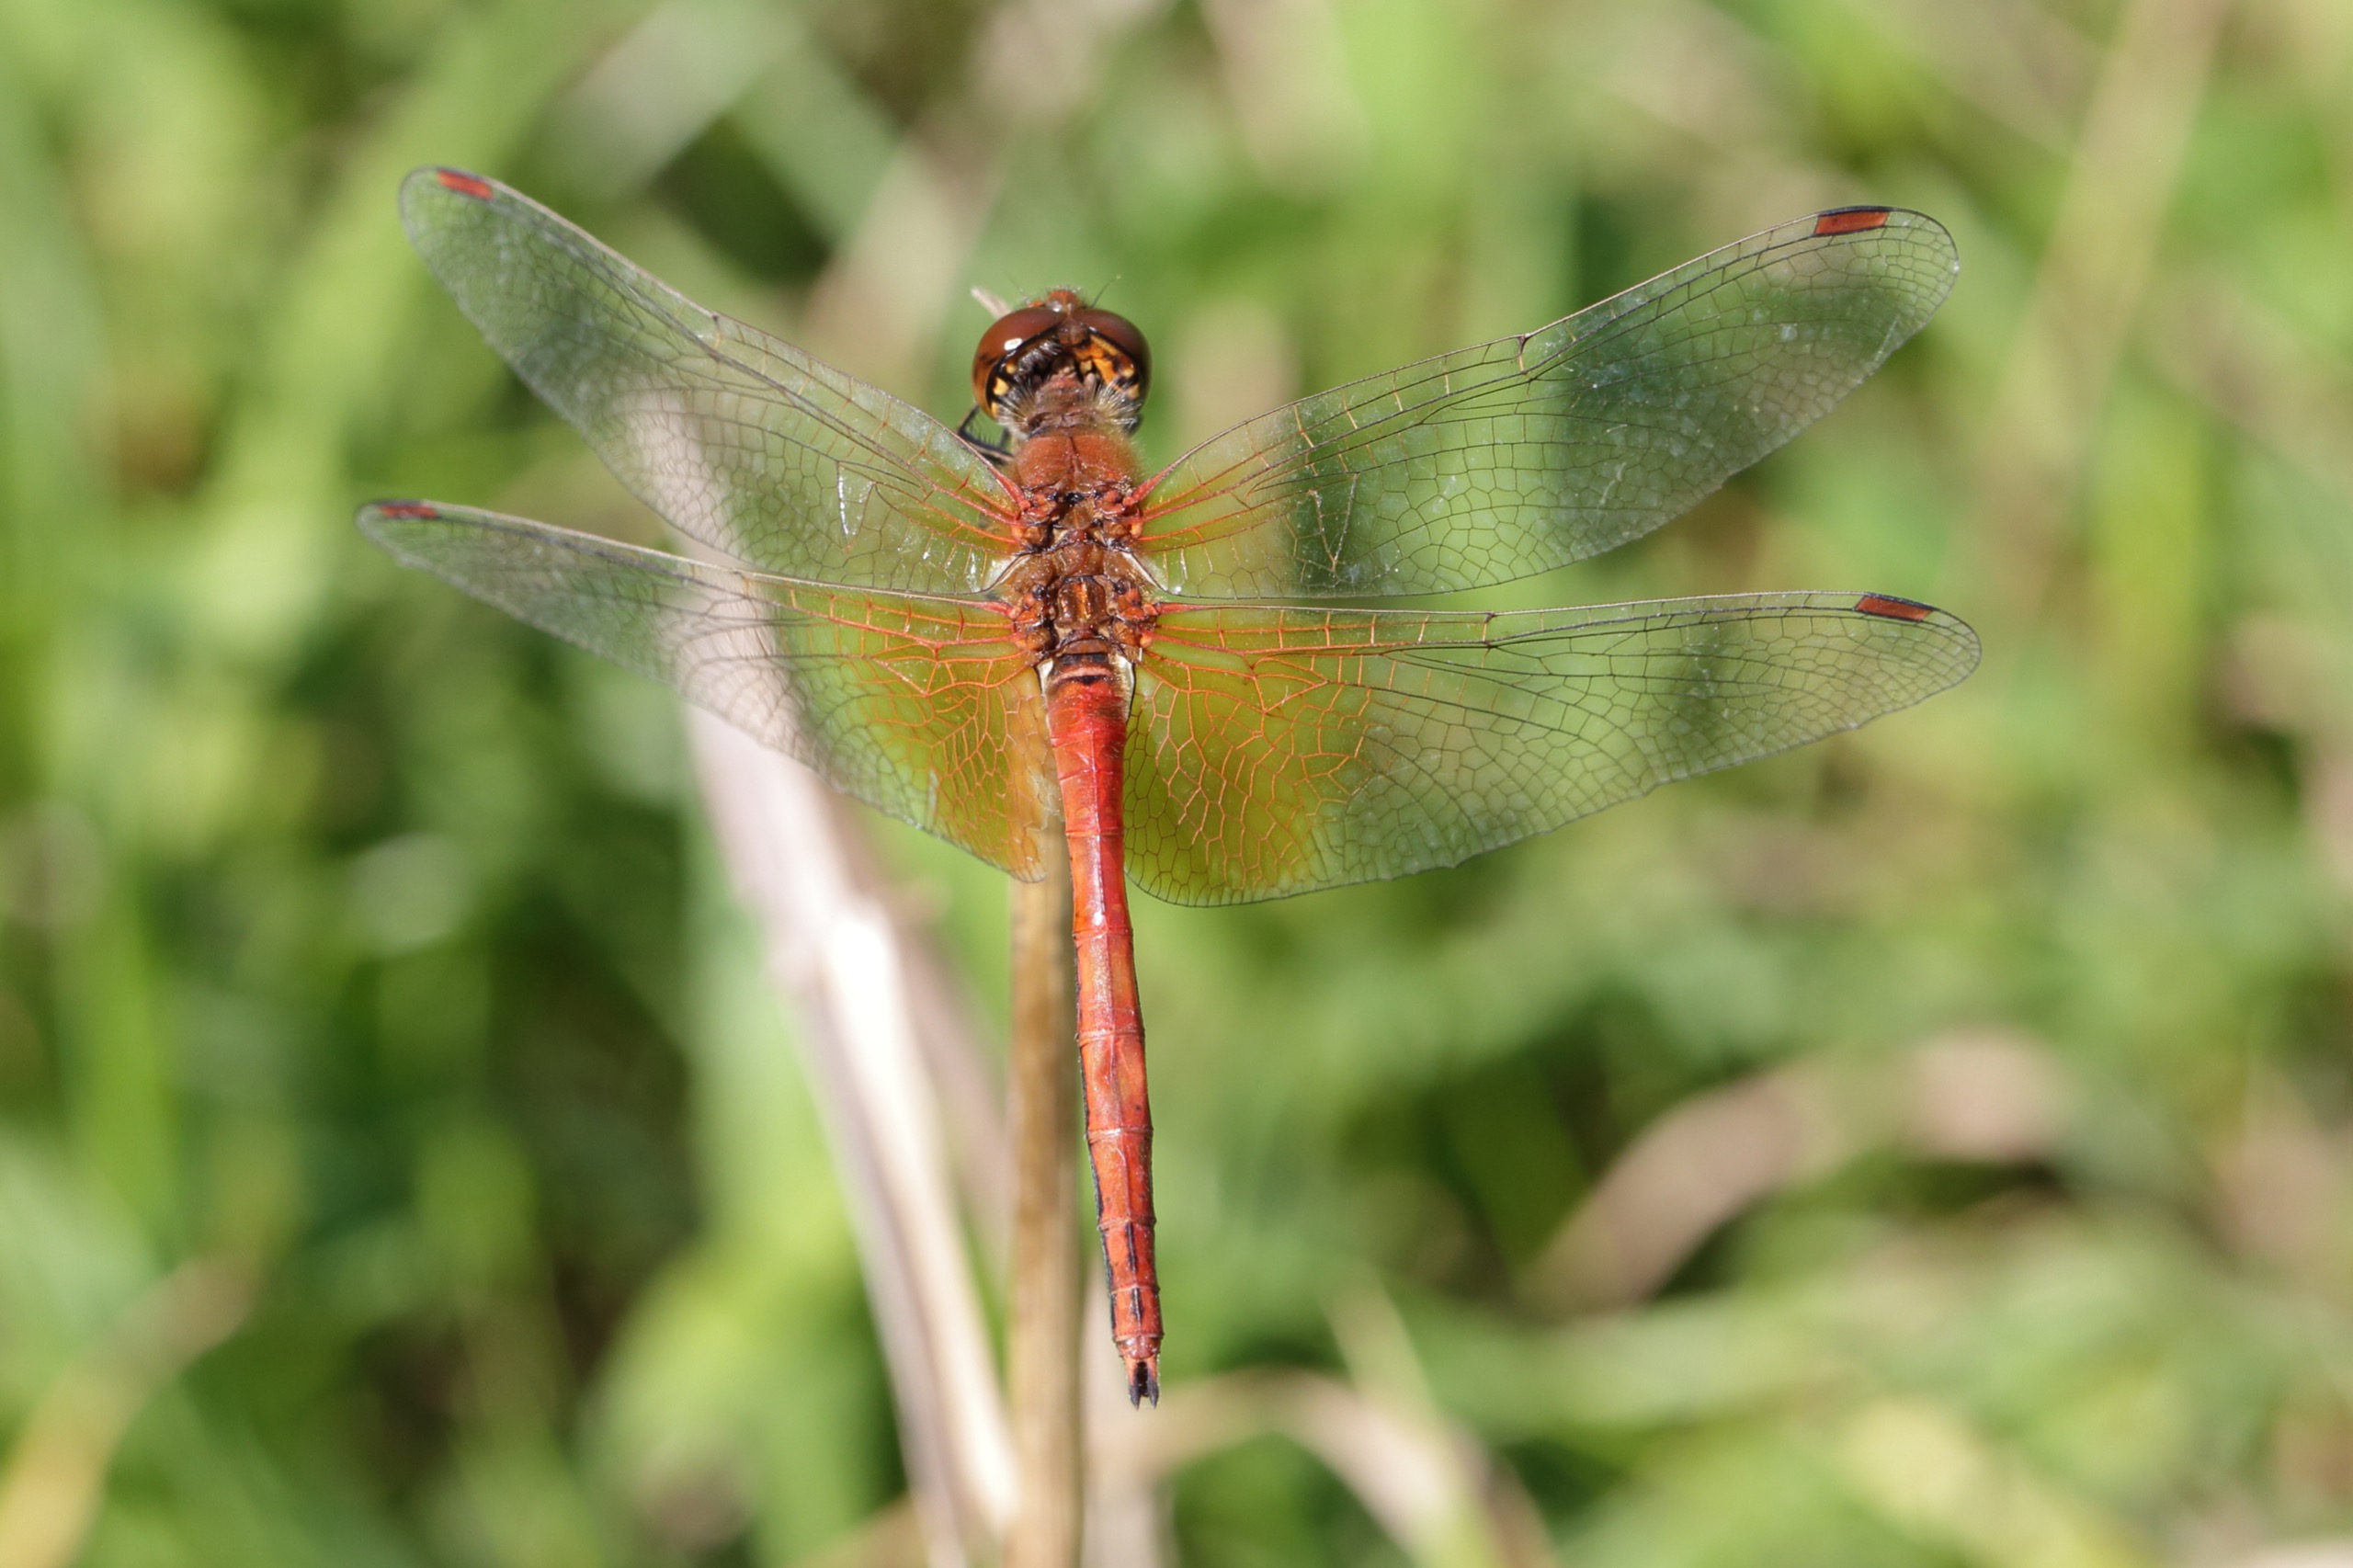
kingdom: Animalia
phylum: Arthropoda
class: Insecta
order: Odonata
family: Libellulidae
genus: Sympetrum
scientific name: Sympetrum flaveolum
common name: Gulvinget hedelibel
